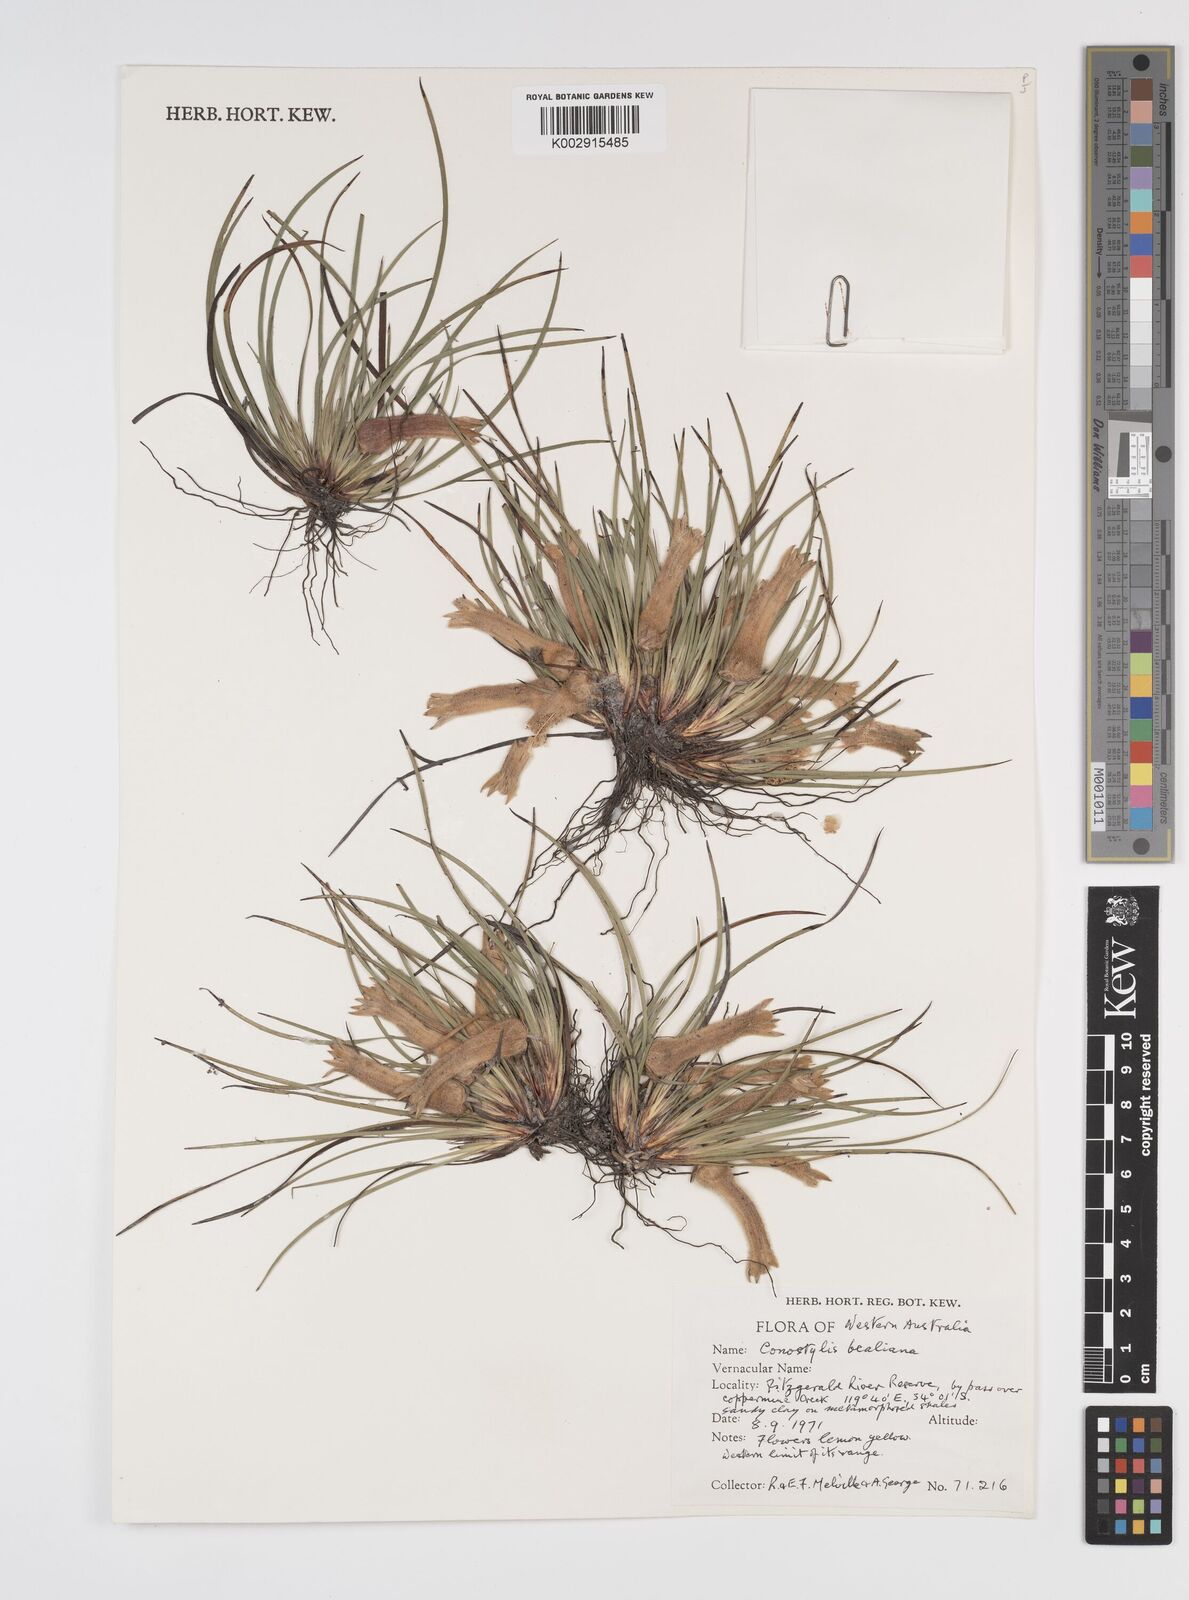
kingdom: Plantae
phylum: Tracheophyta
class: Liliopsida
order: Commelinales
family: Haemodoraceae
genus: Conostylis
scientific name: Conostylis bealiana
